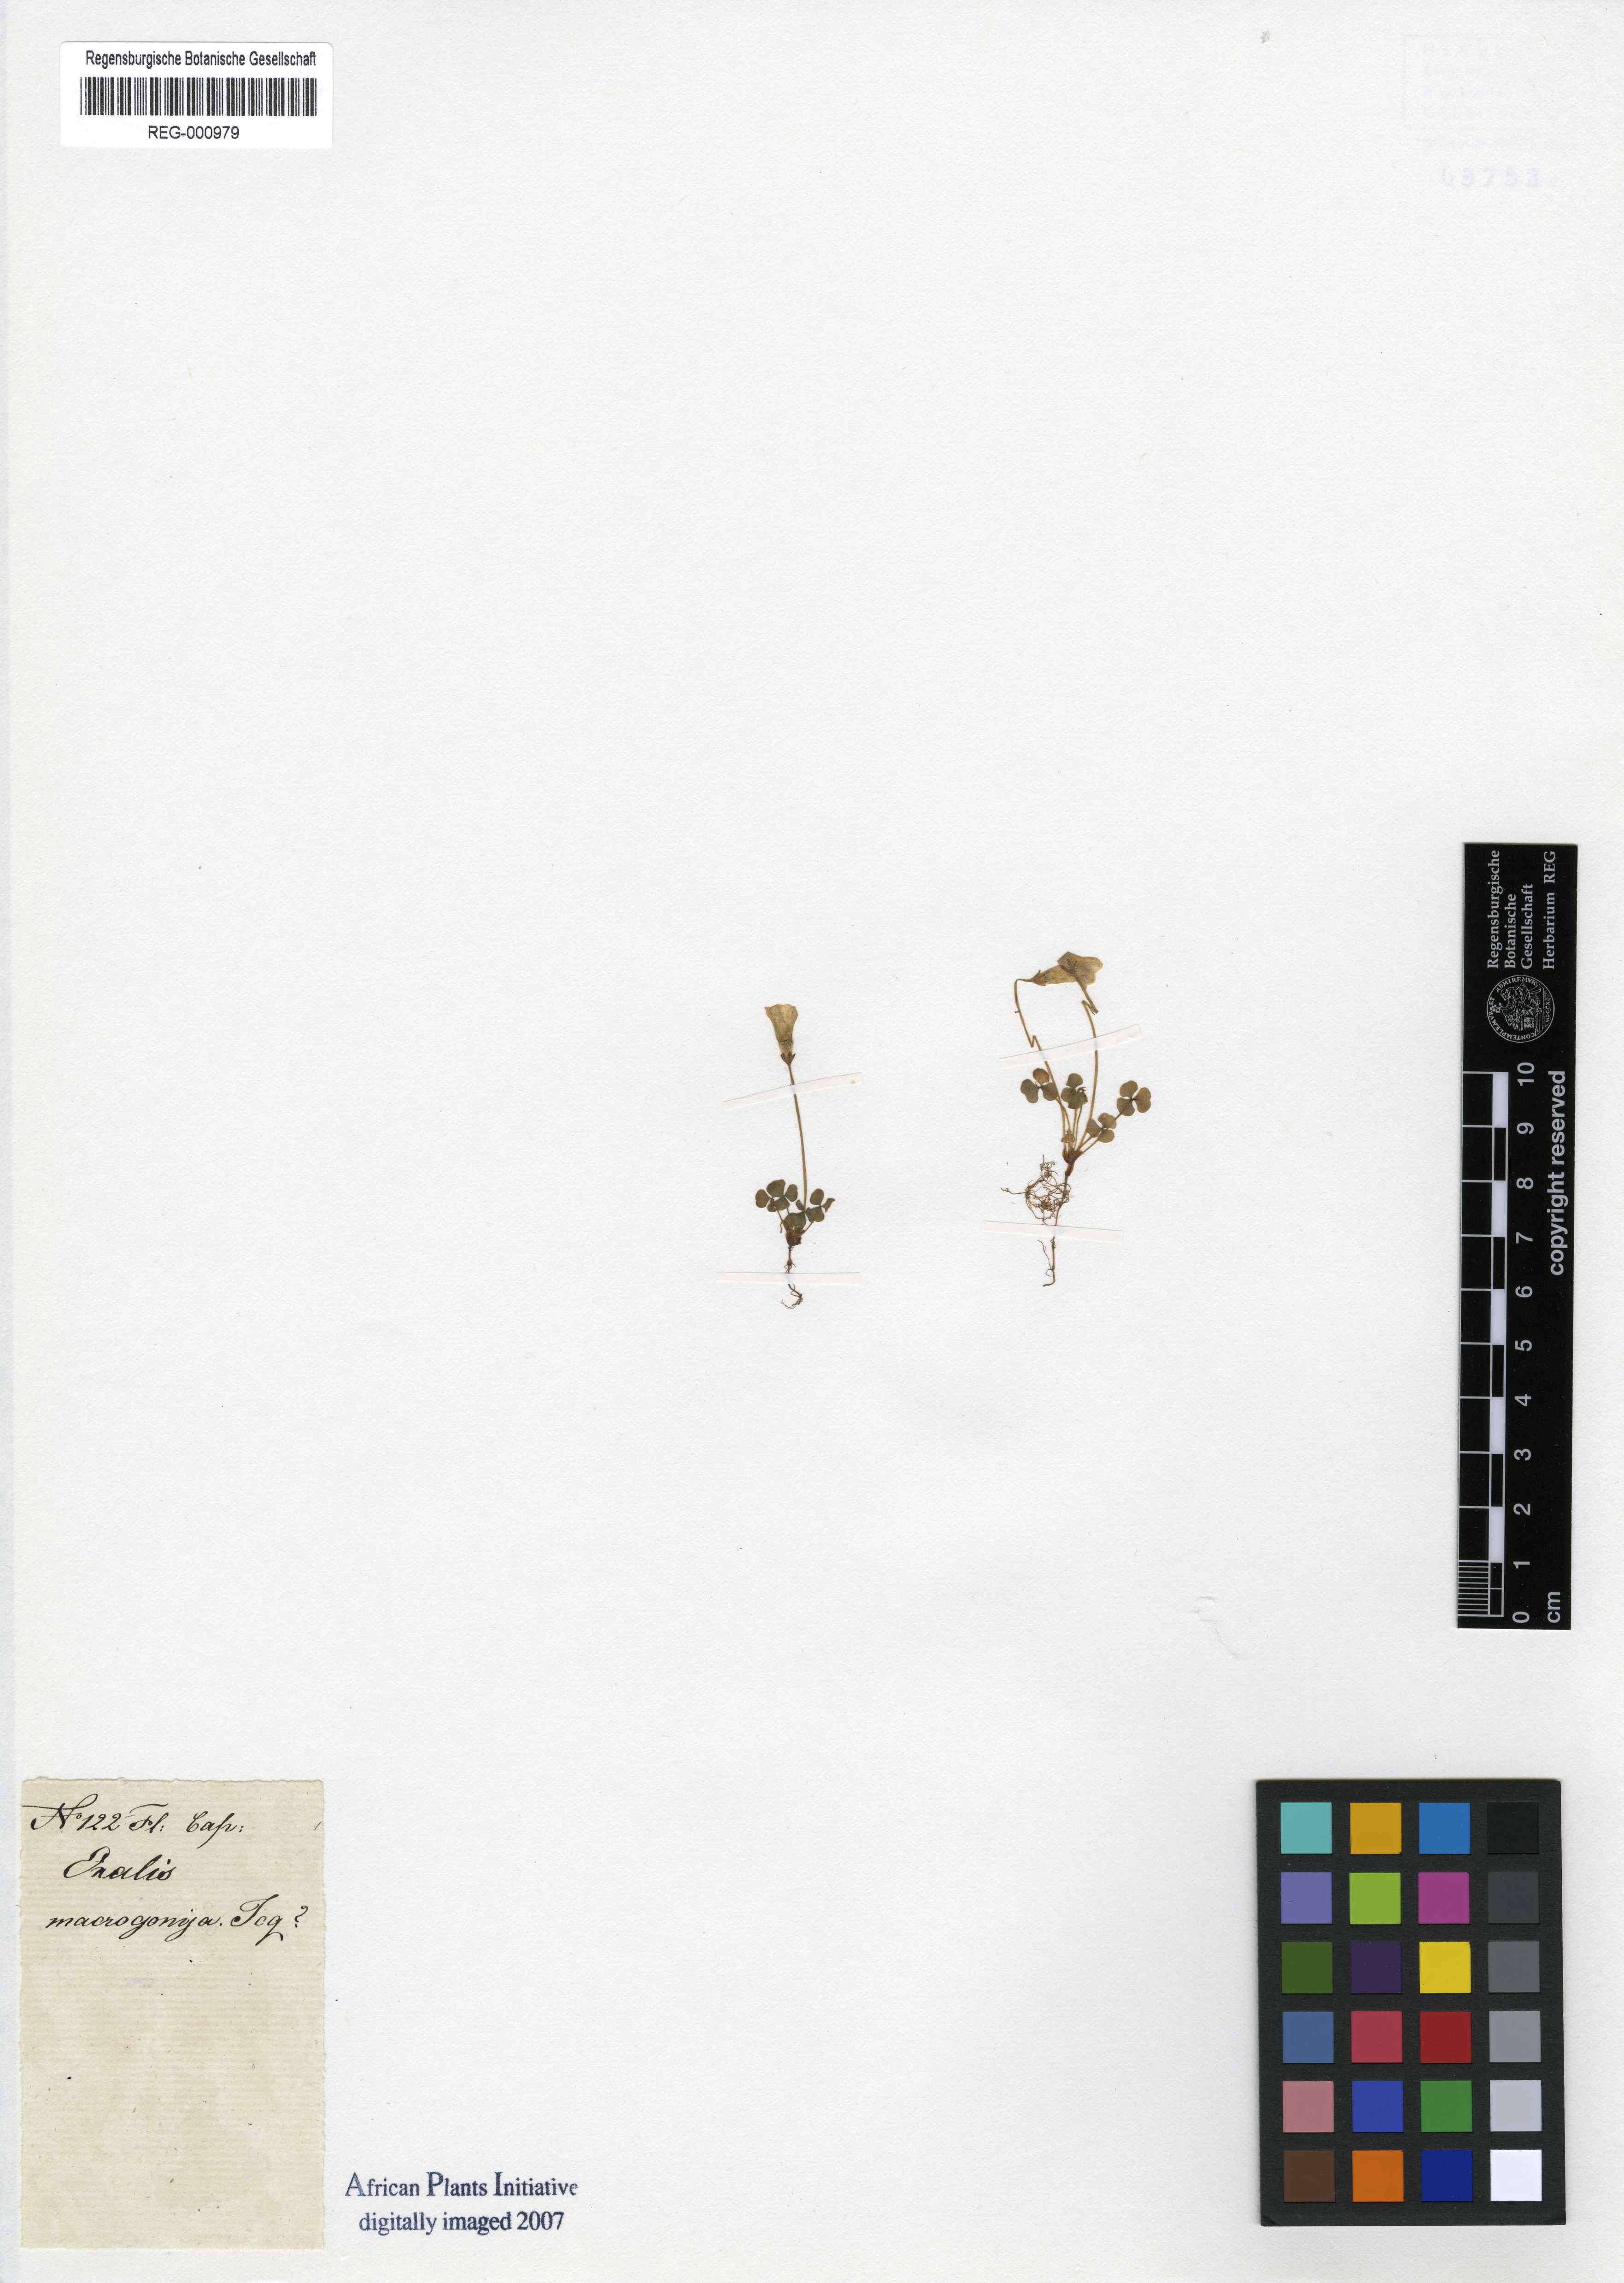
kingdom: Plantae
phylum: Tracheophyta
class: Magnoliopsida
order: Oxalidales
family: Oxalidaceae
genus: Oxalis
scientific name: Oxalis
